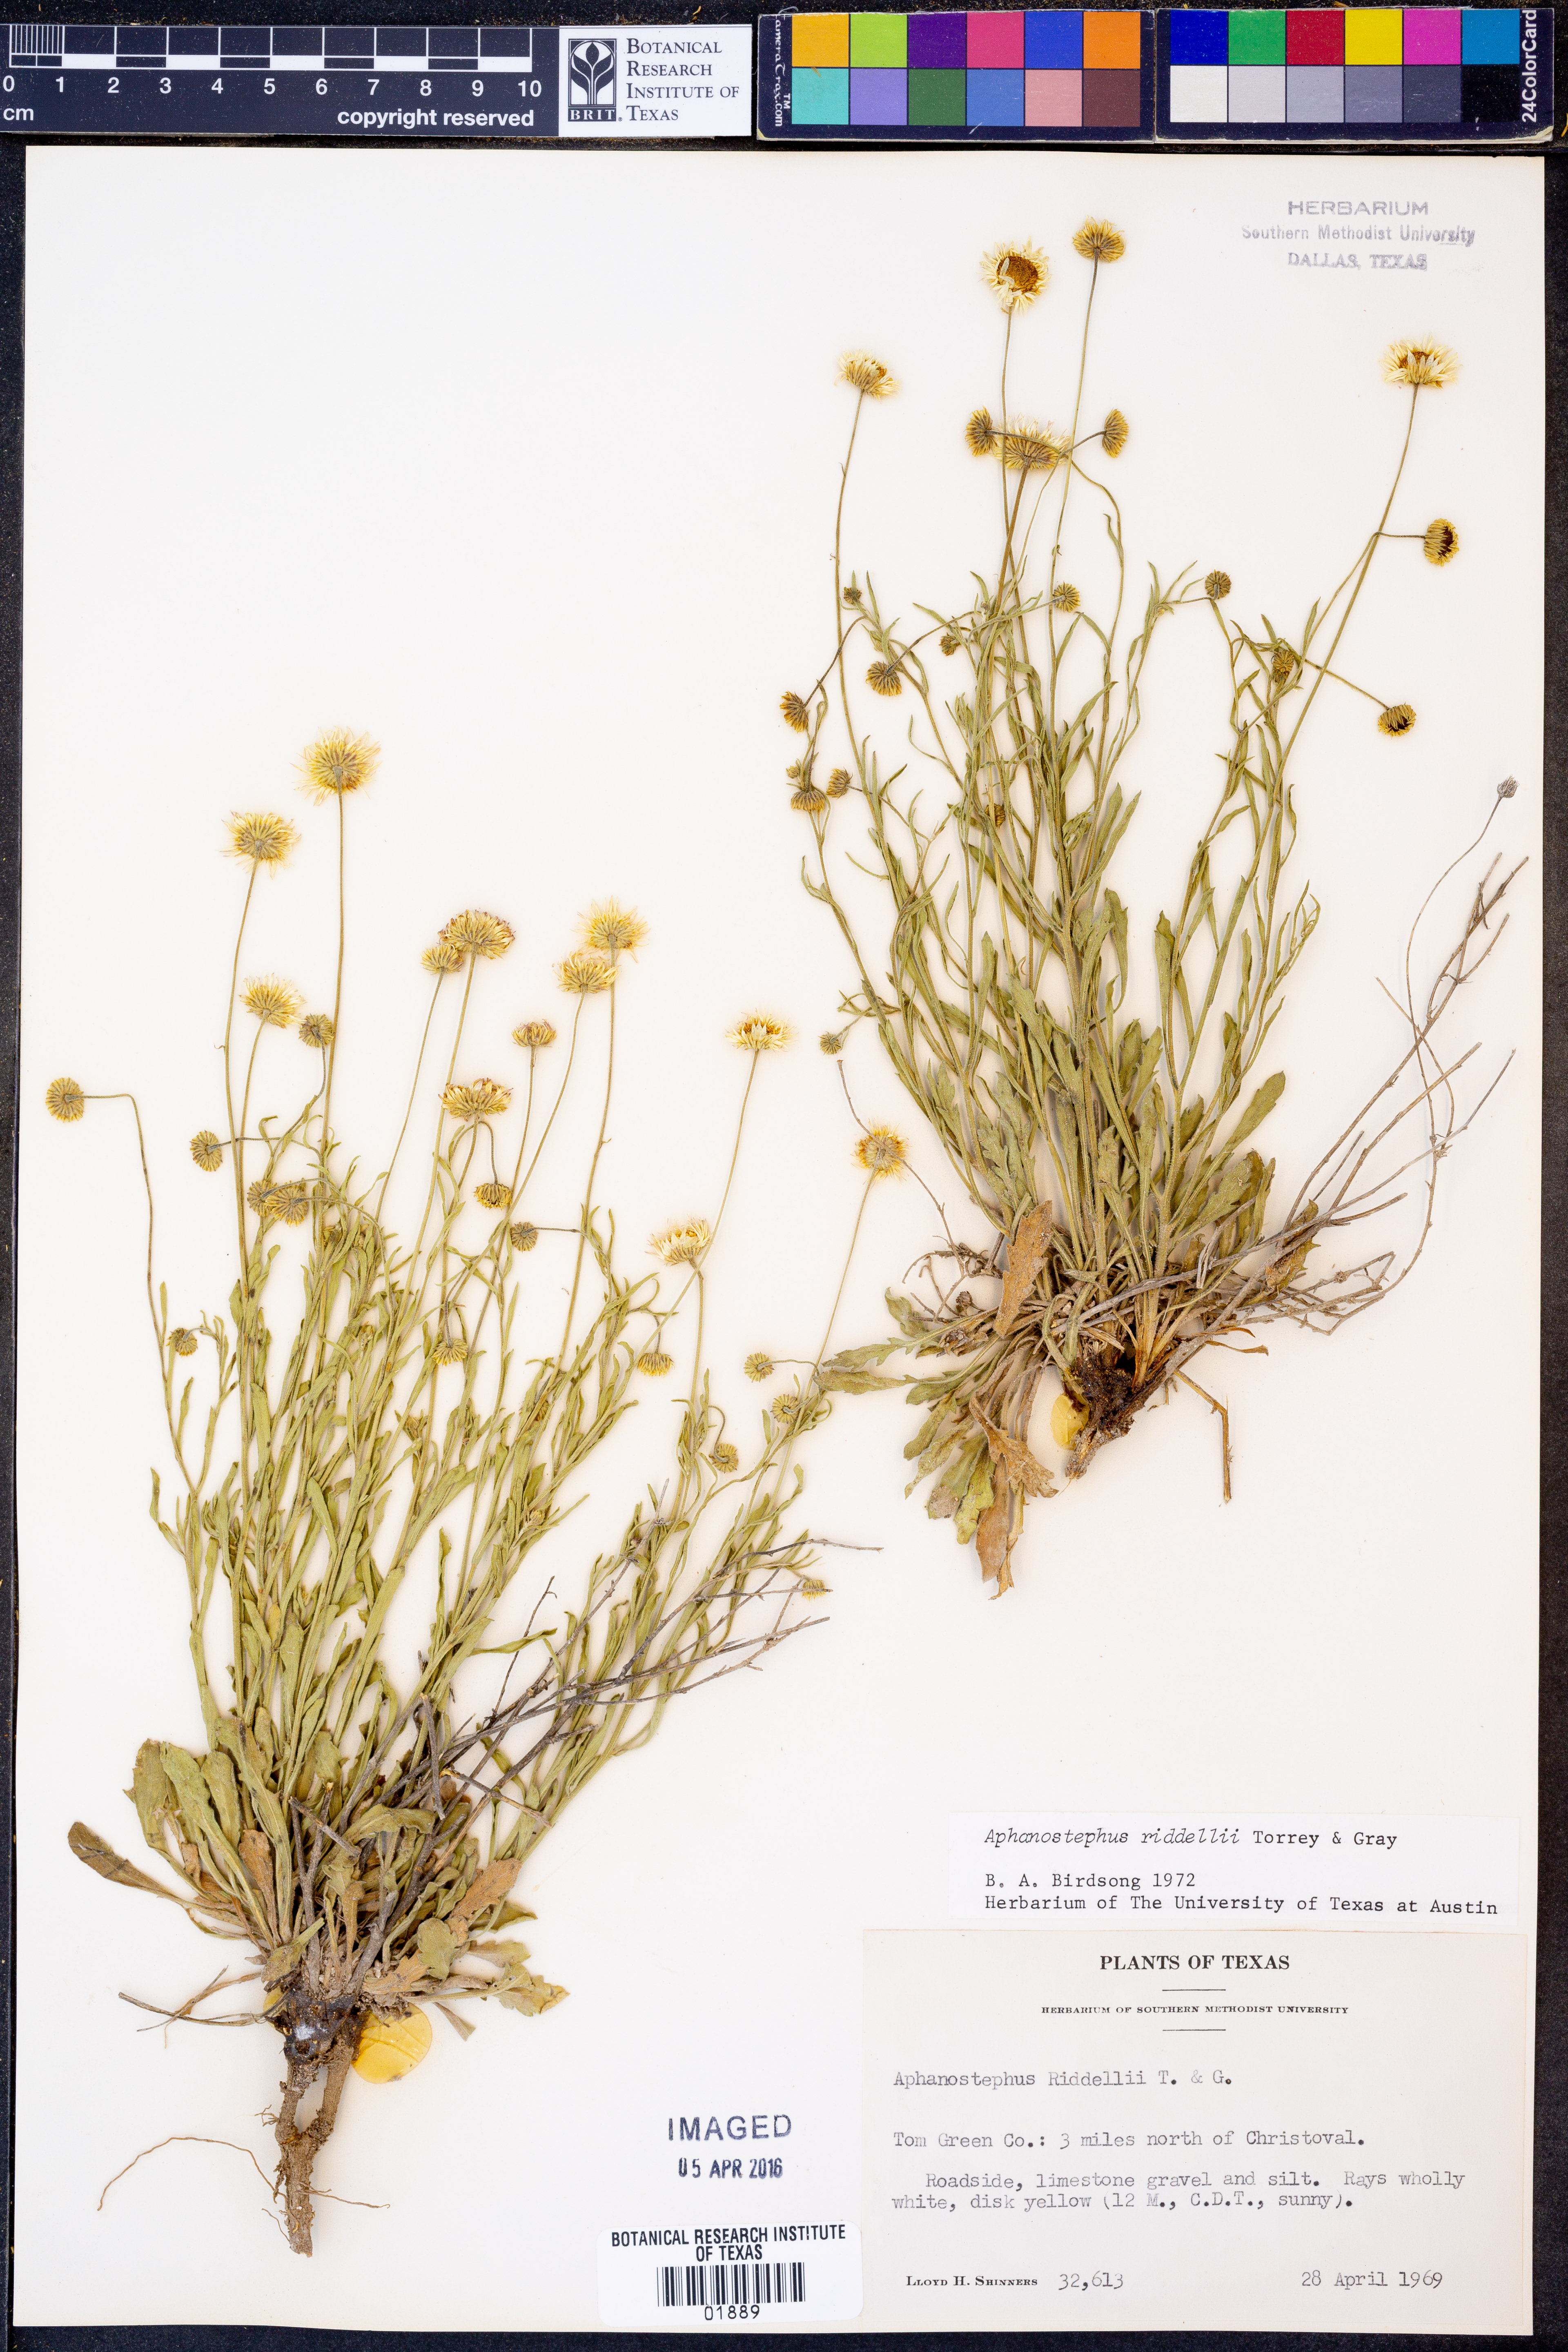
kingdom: Plantae
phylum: Tracheophyta
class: Magnoliopsida
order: Asterales
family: Asteraceae
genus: Aphanostephus
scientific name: Aphanostephus riddellii
